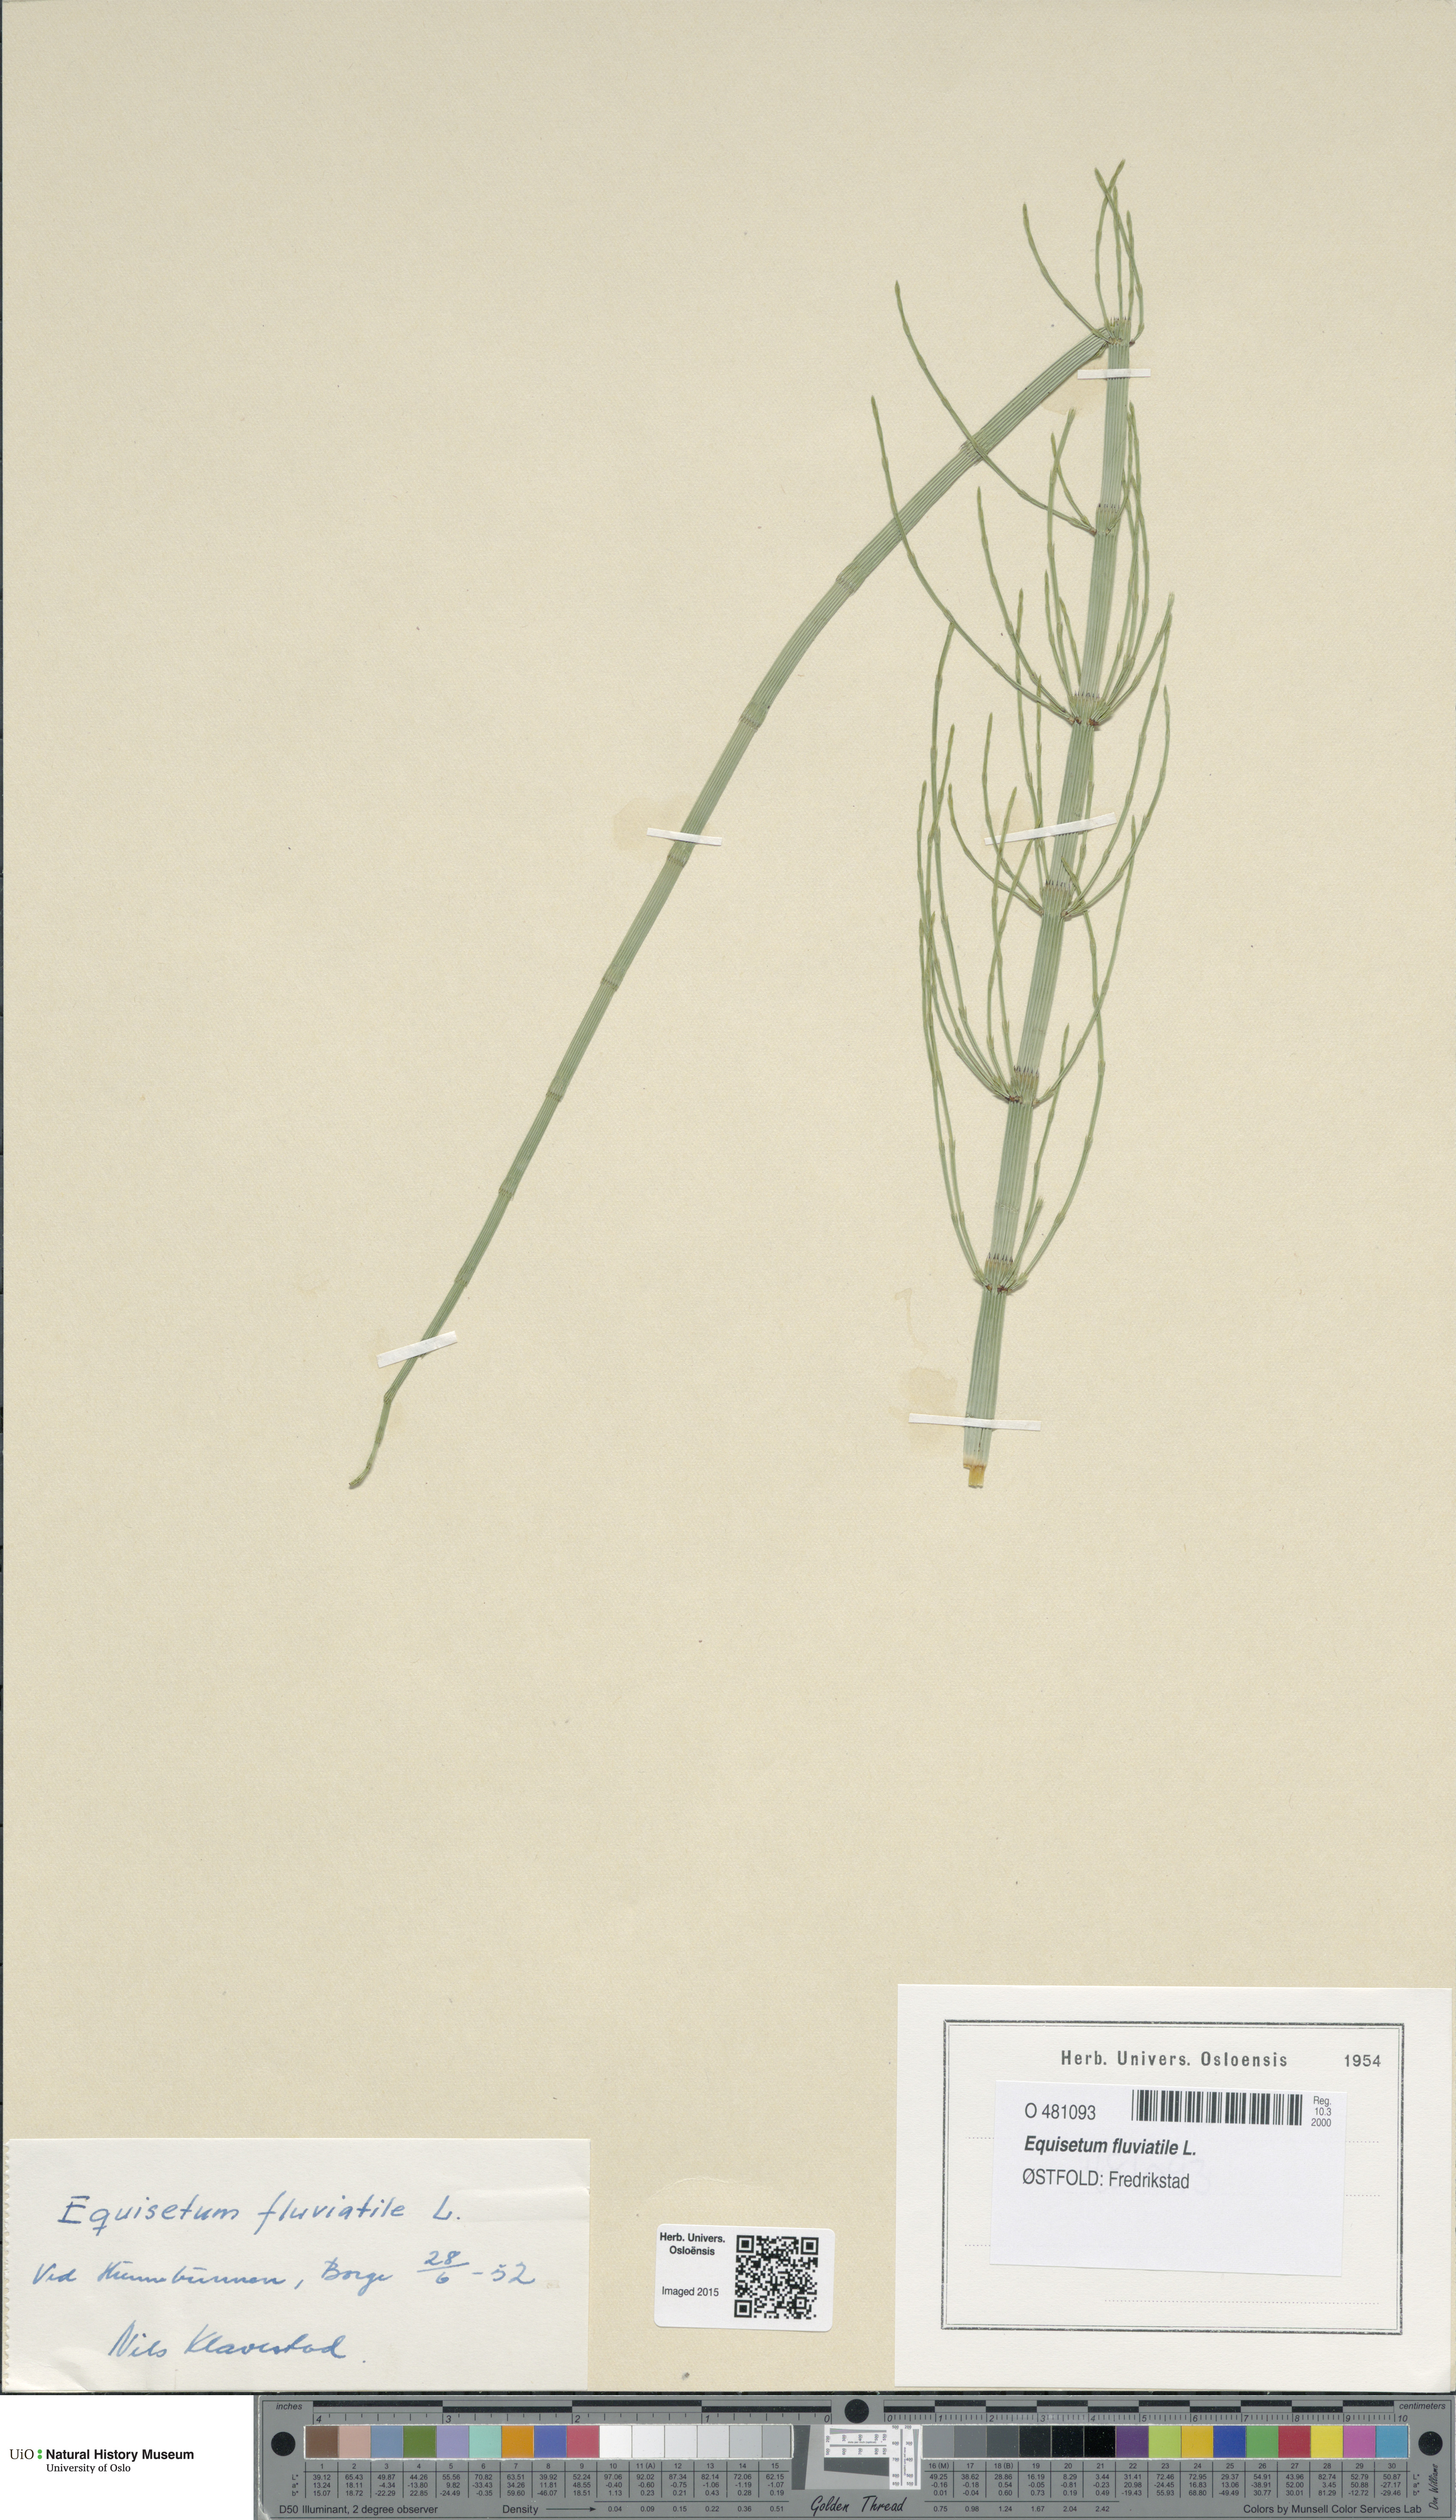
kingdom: Plantae
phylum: Tracheophyta
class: Polypodiopsida
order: Equisetales
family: Equisetaceae
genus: Equisetum
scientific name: Equisetum fluviatile
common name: Water horsetail
